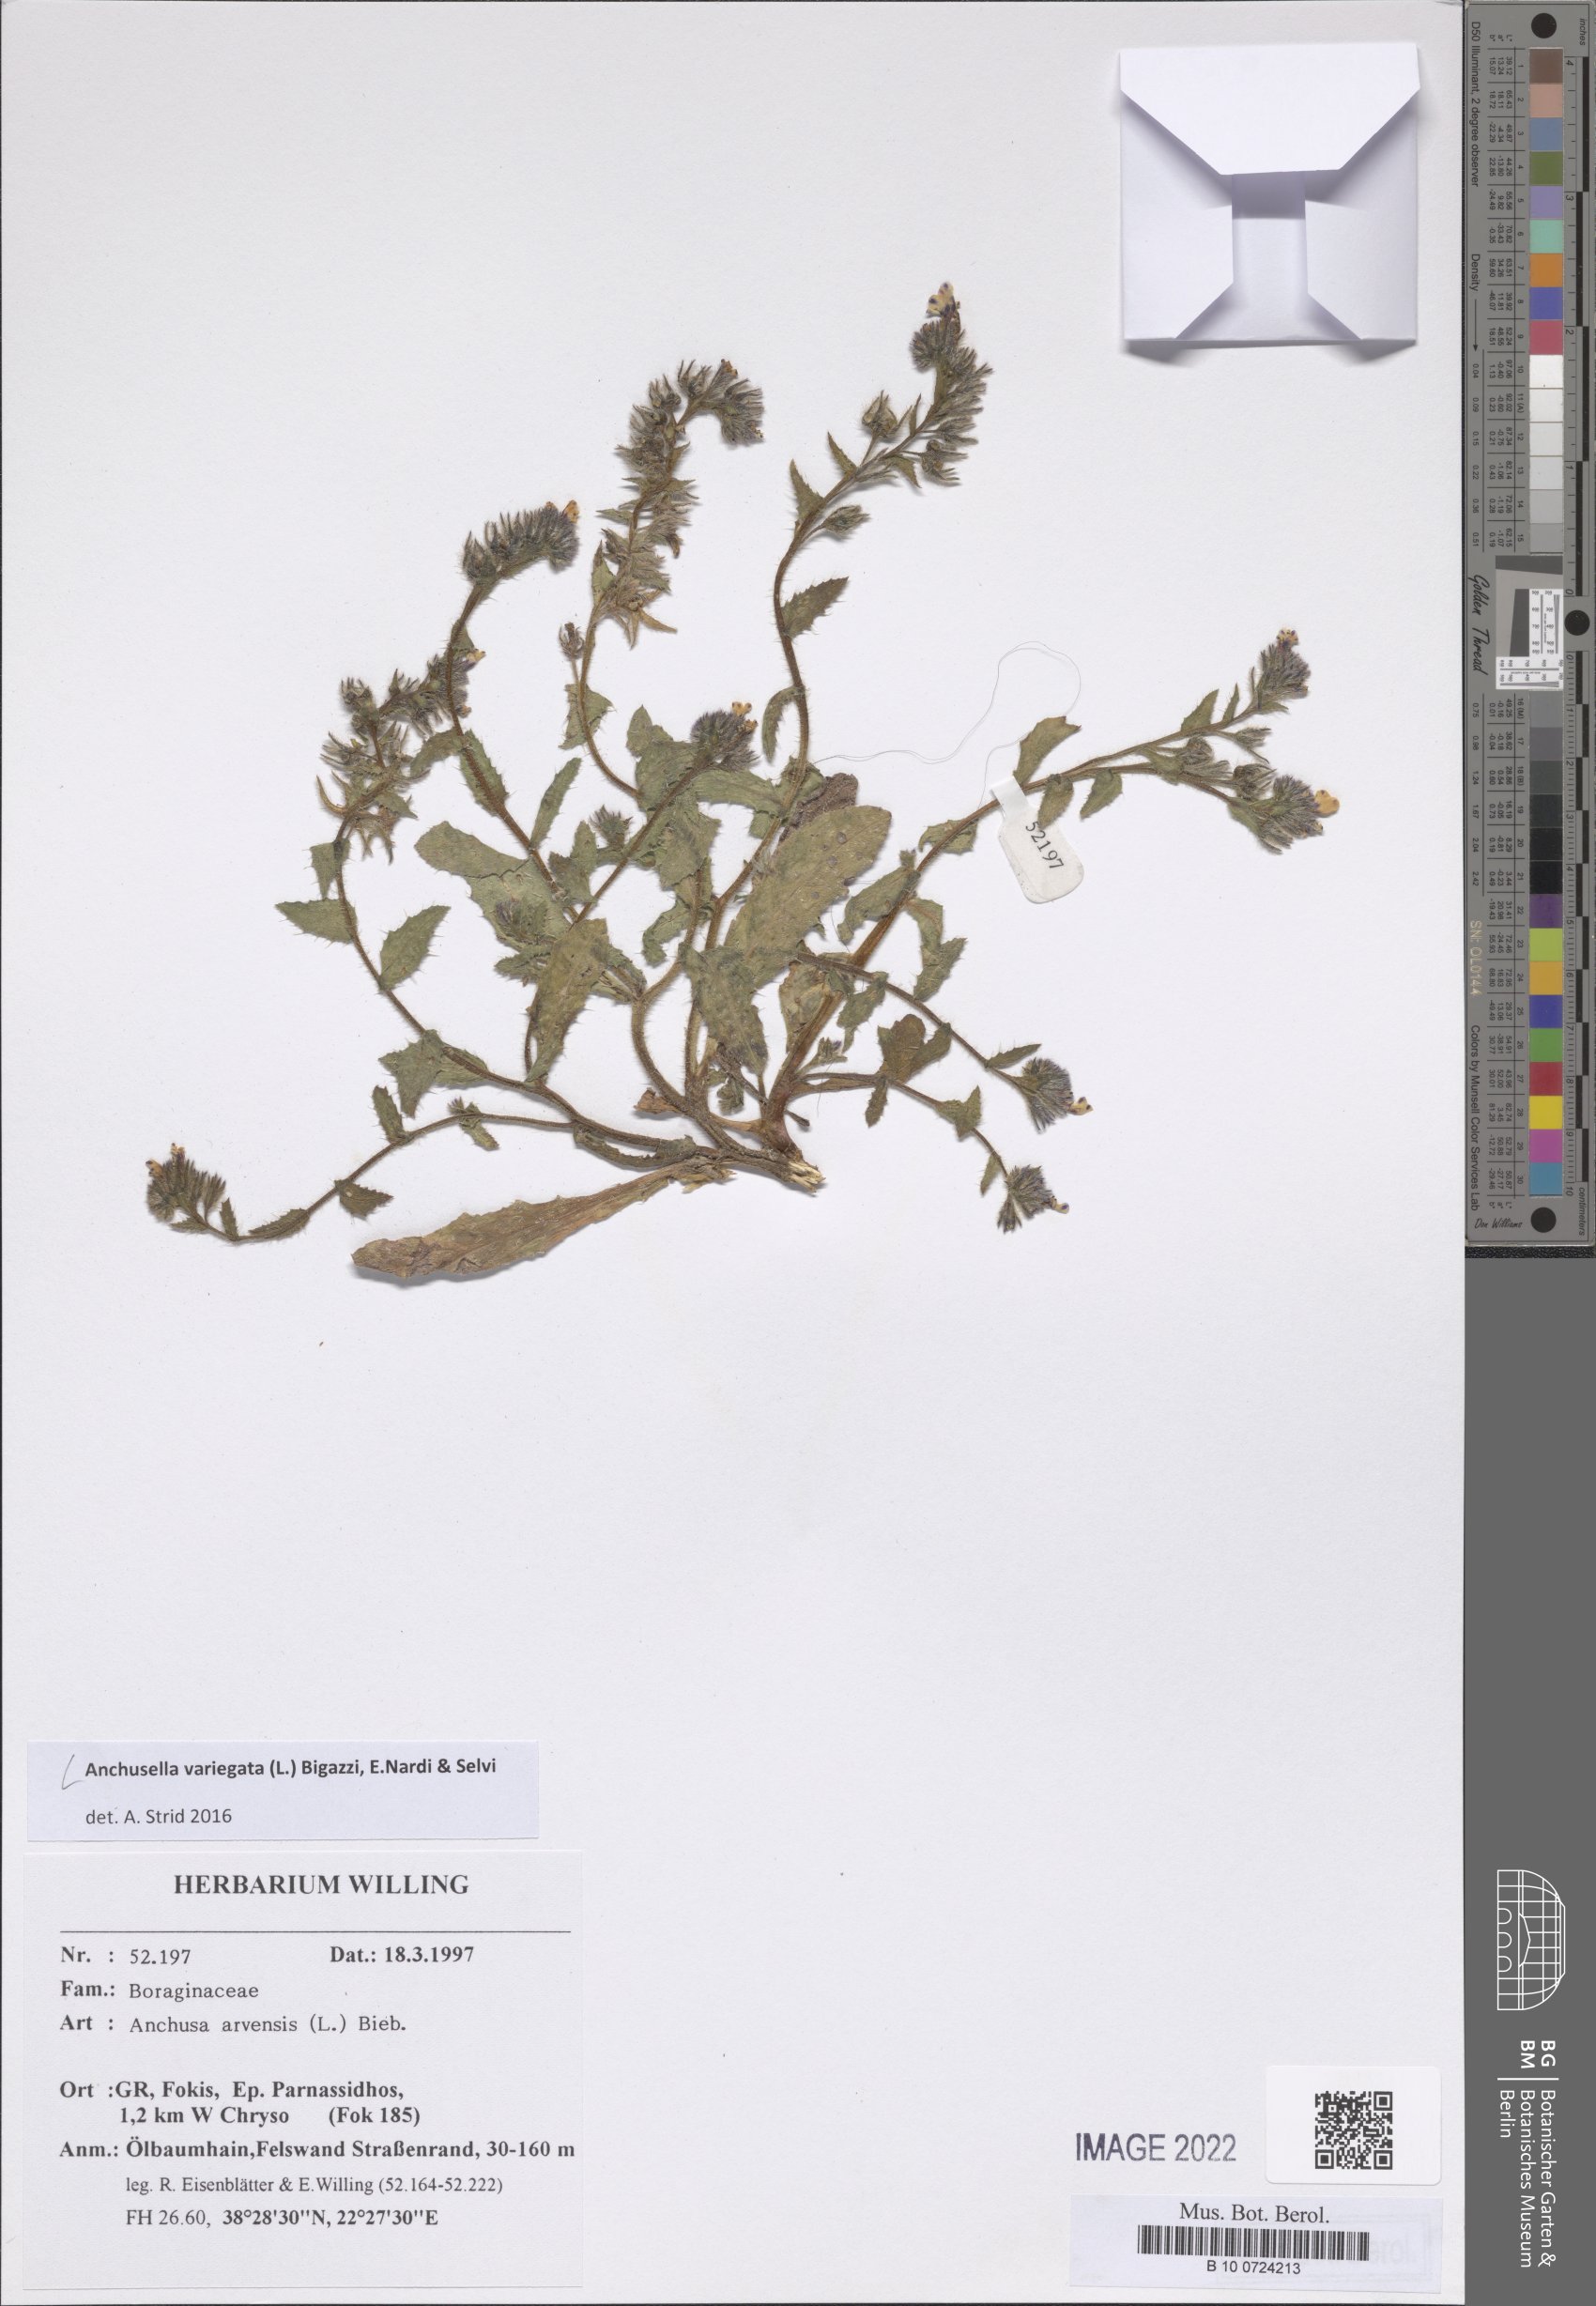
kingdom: Plantae
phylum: Tracheophyta
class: Magnoliopsida
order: Boraginales
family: Boraginaceae
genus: Anchusella
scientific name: Anchusella variegata
